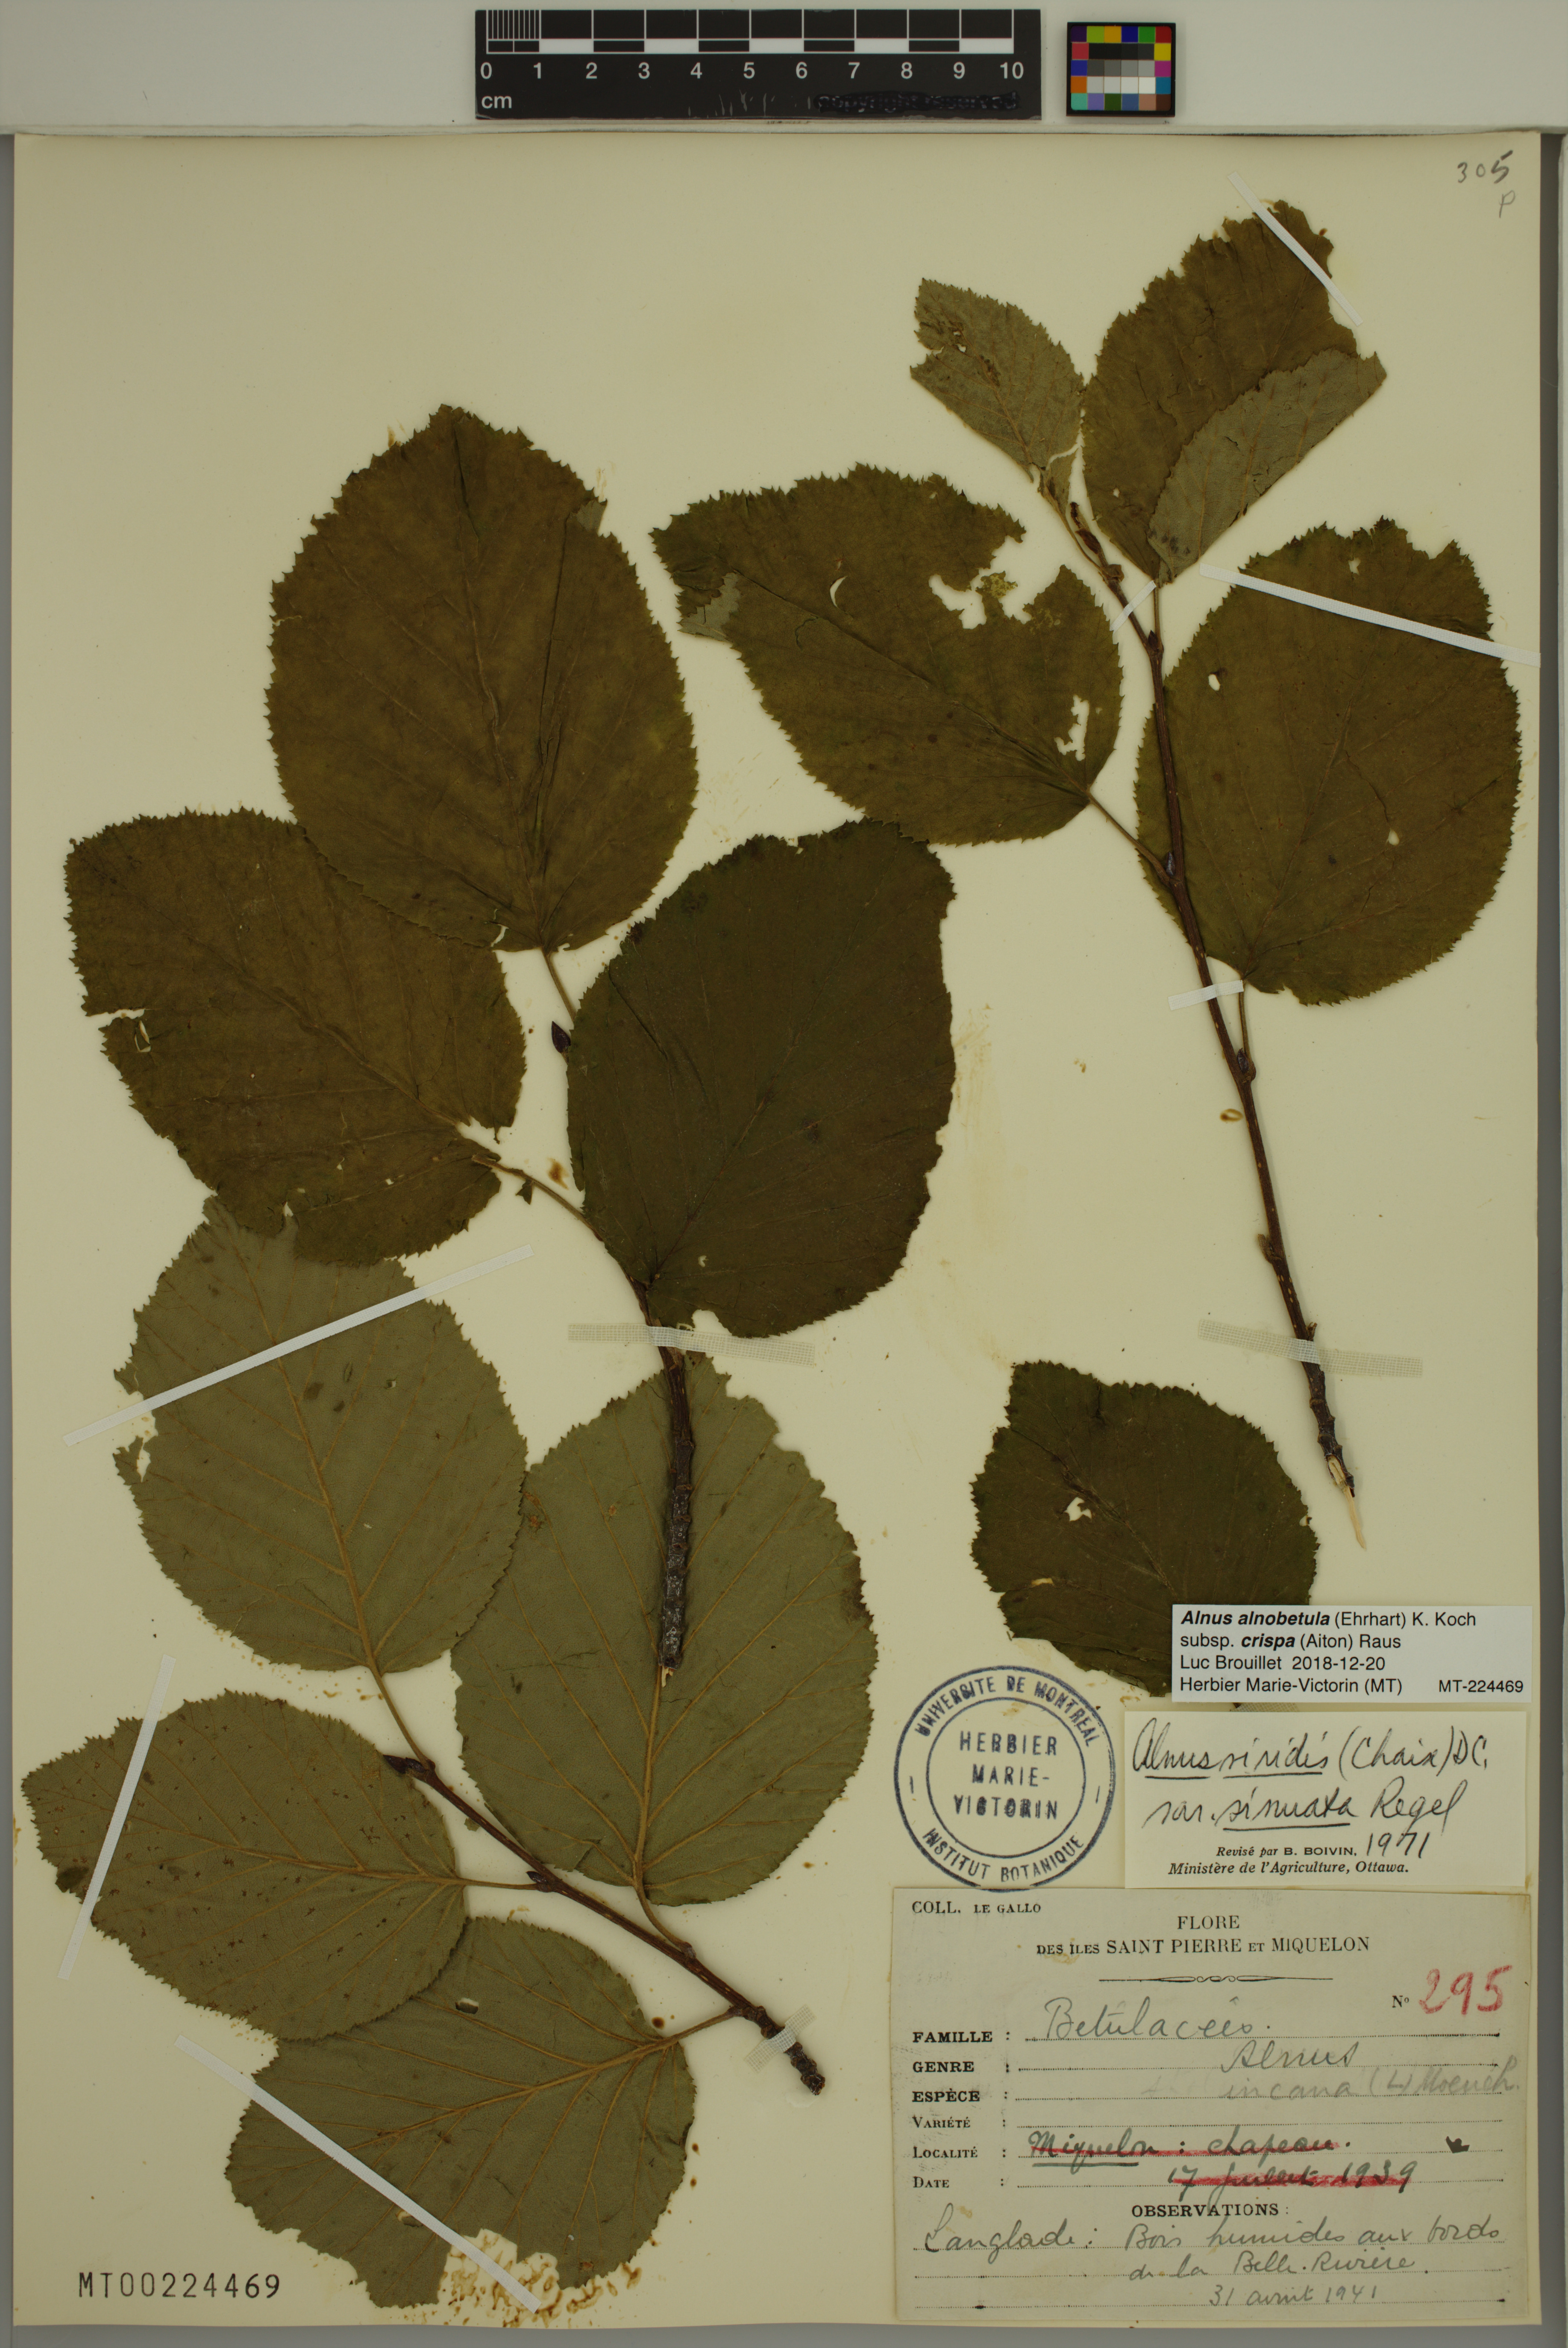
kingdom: Plantae
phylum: Tracheophyta
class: Magnoliopsida
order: Fagales
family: Betulaceae
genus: Alnus
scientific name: Alnus alnobetula
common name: Green alder
